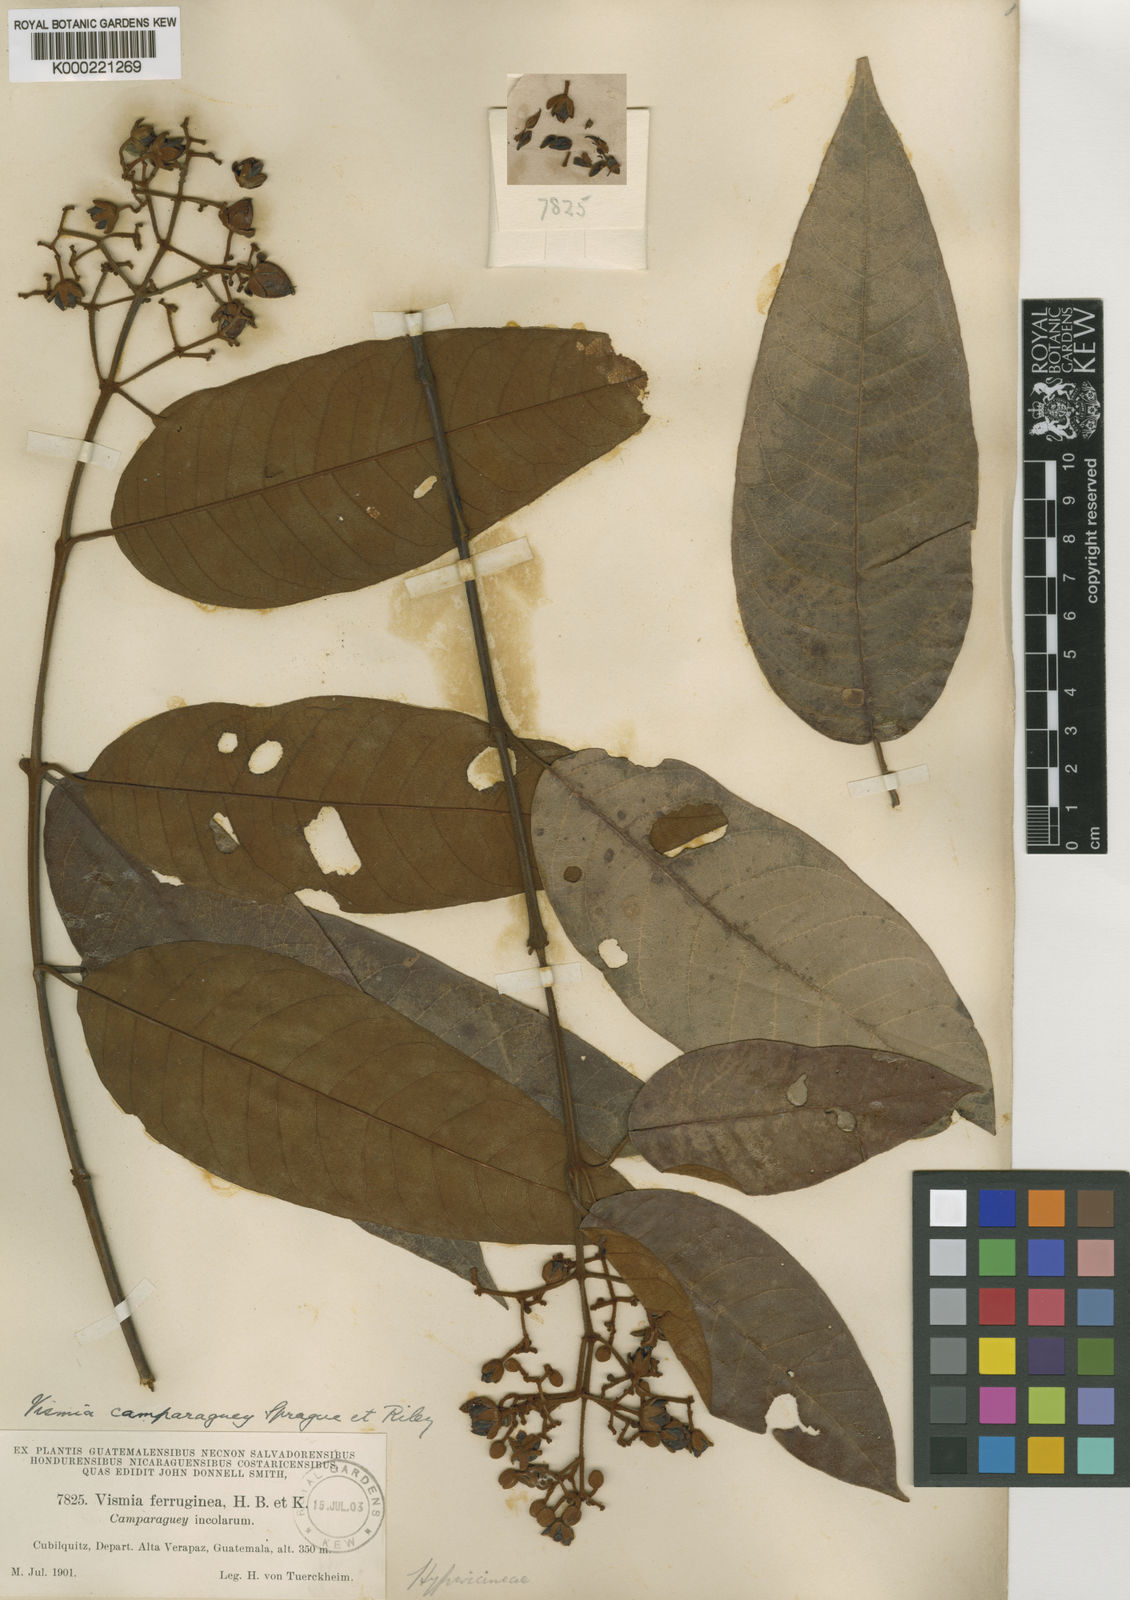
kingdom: Plantae
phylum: Tracheophyta
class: Magnoliopsida
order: Malpighiales
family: Hypericaceae
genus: Vismia
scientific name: Vismia camparaguey
